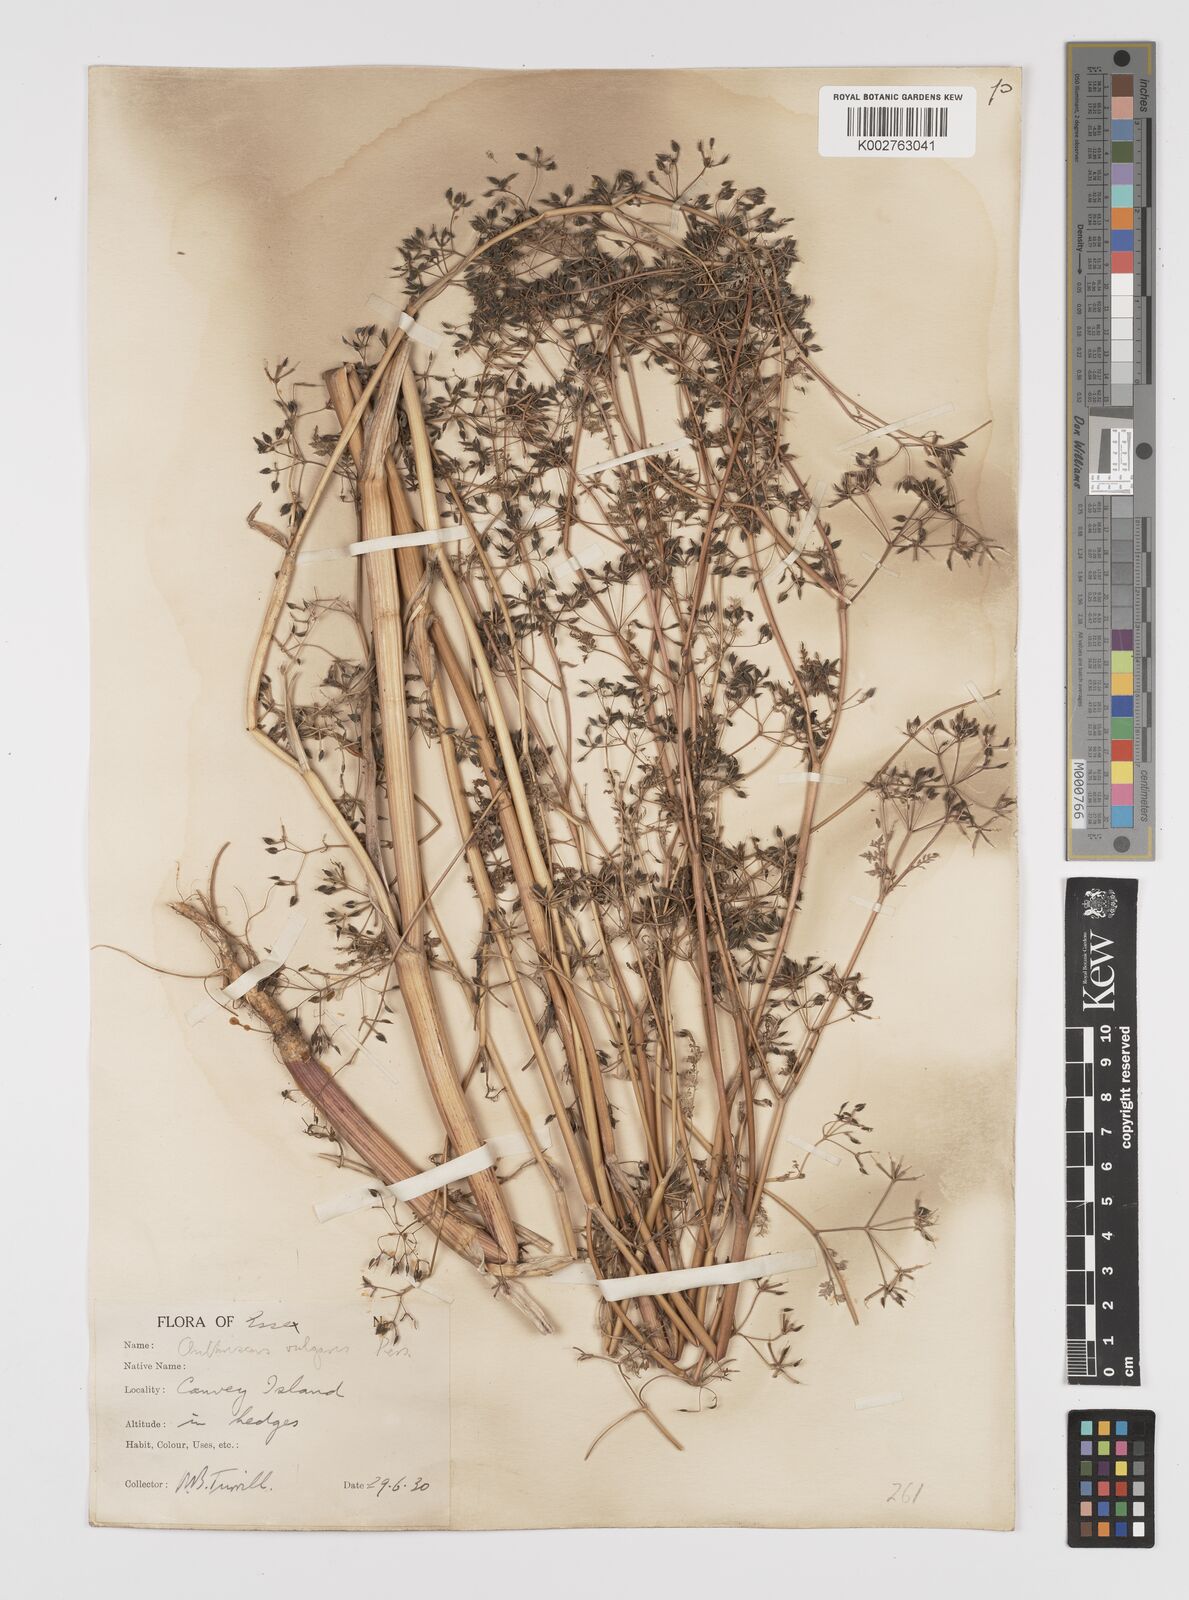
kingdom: Plantae
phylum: Tracheophyta
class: Magnoliopsida
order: Apiales
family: Apiaceae
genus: Anthriscus
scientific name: Anthriscus caucalis
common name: Bur chervil
